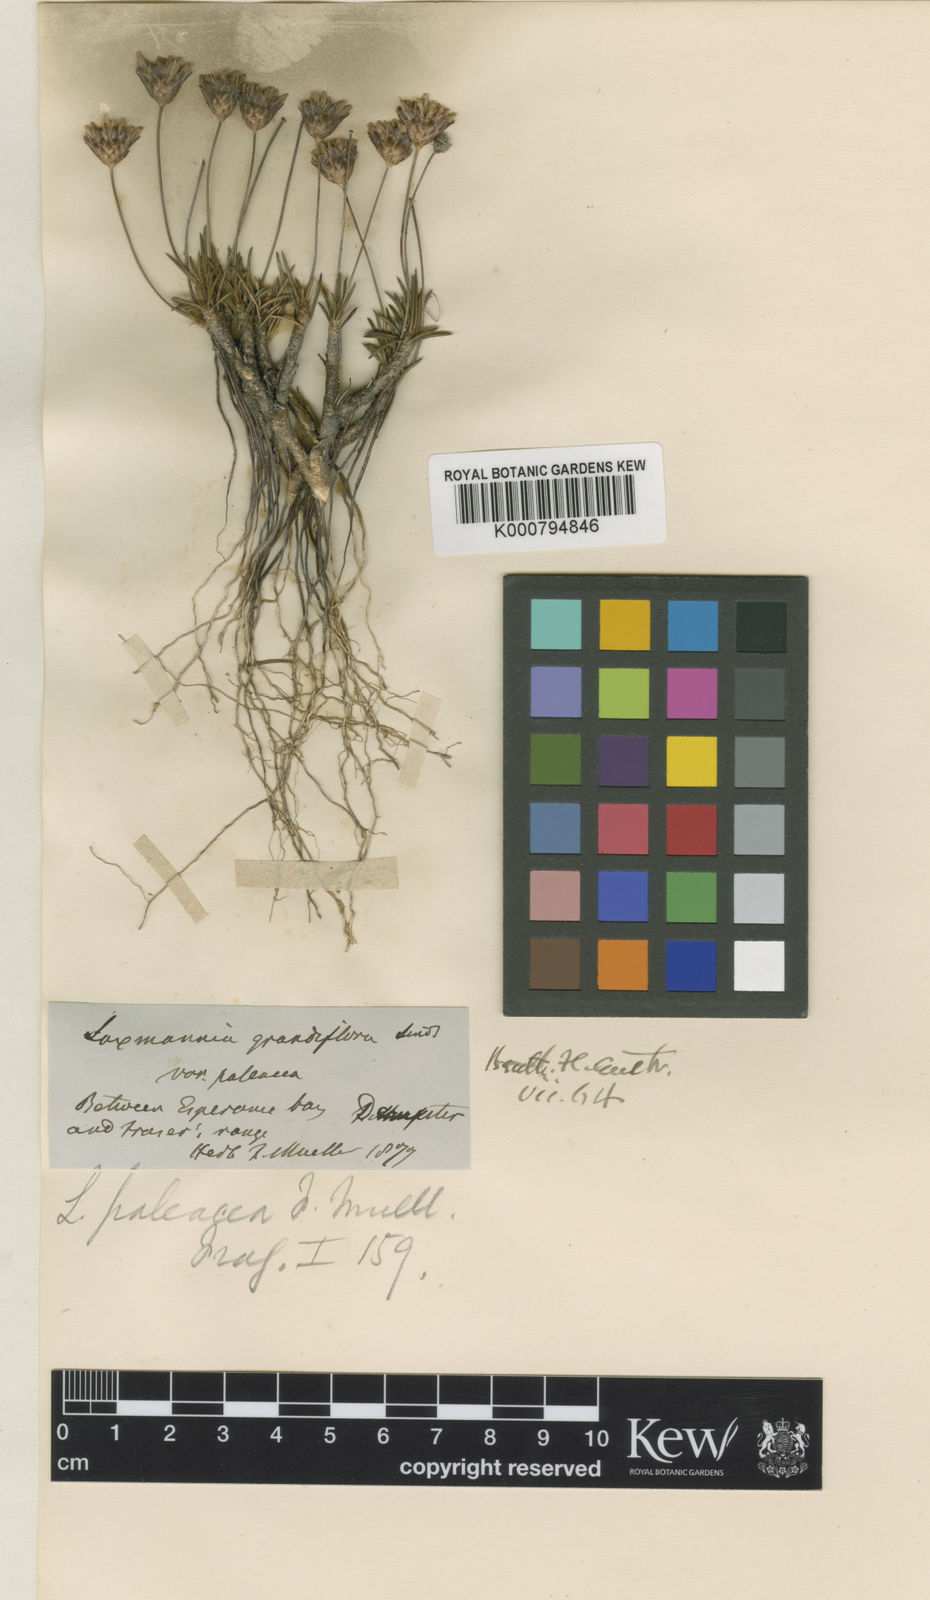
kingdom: Plantae
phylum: Tracheophyta
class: Liliopsida
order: Asparagales
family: Asparagaceae
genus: Laxmannia
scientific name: Laxmannia paleacea
